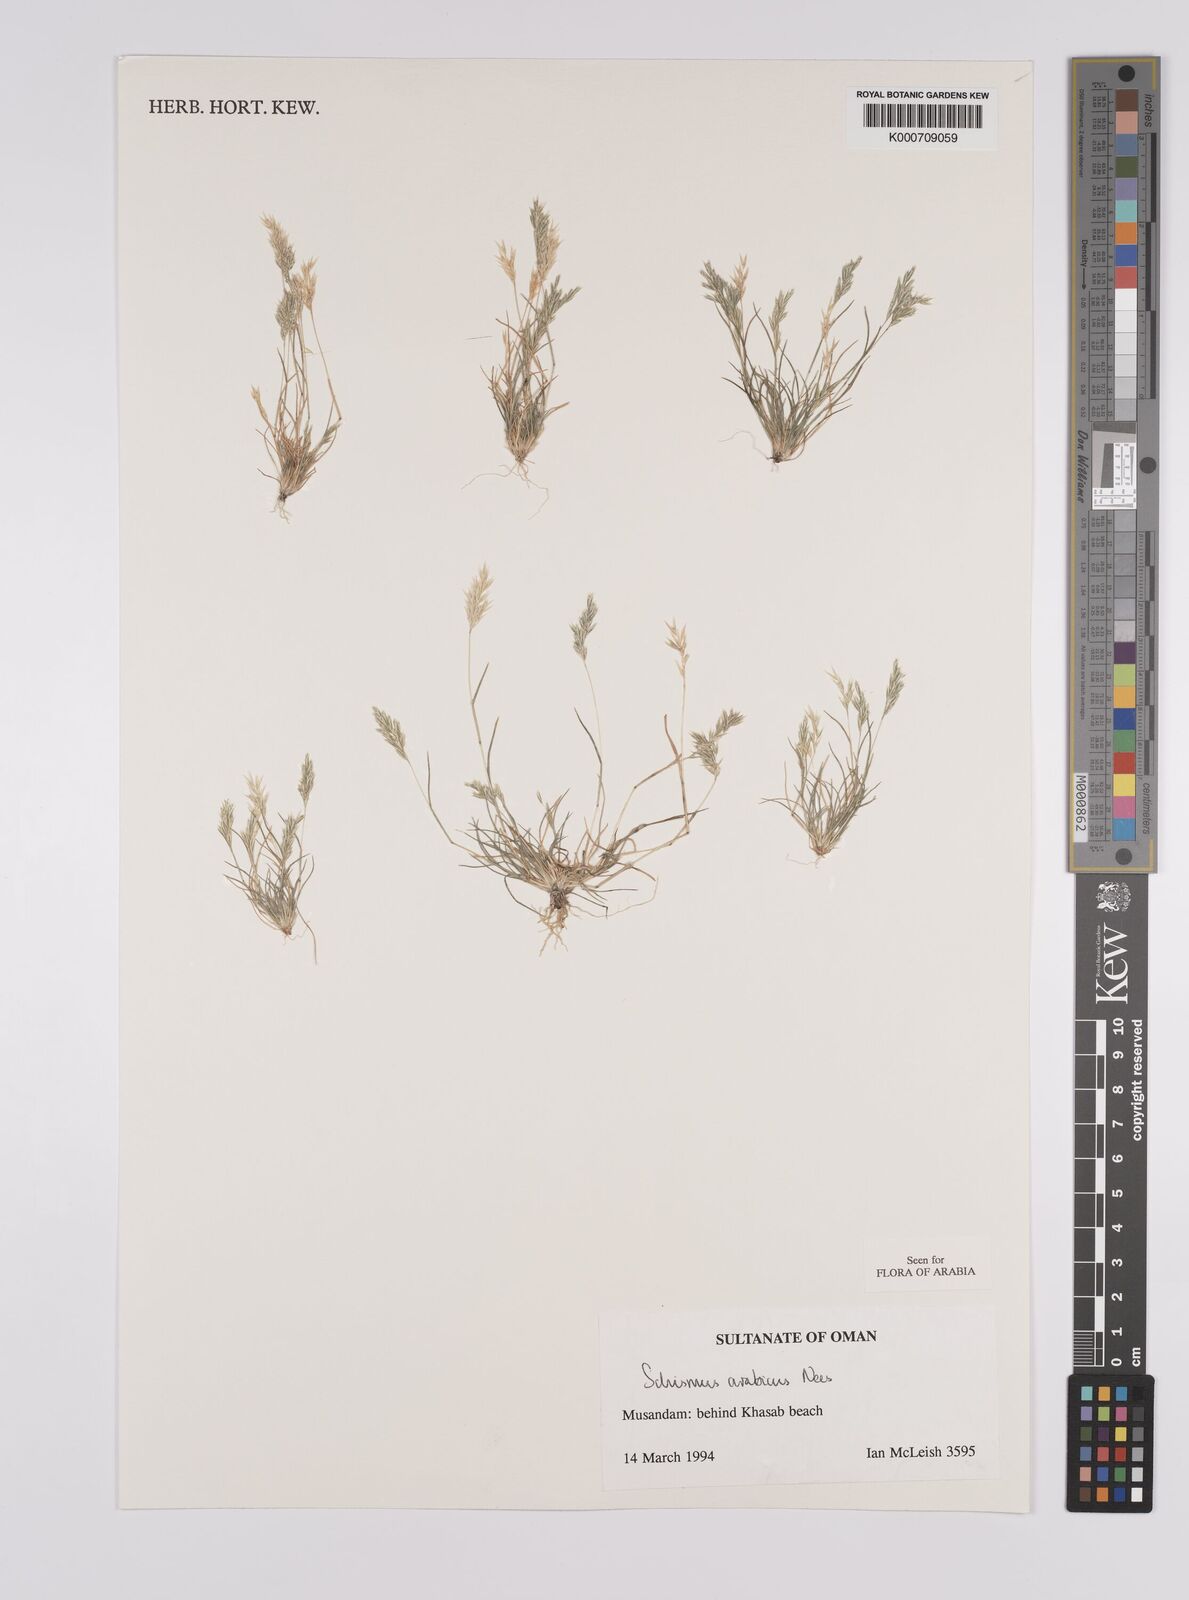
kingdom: Plantae
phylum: Tracheophyta
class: Liliopsida
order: Poales
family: Poaceae
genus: Schismus
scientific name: Schismus arabicus
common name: Arabian schismus
